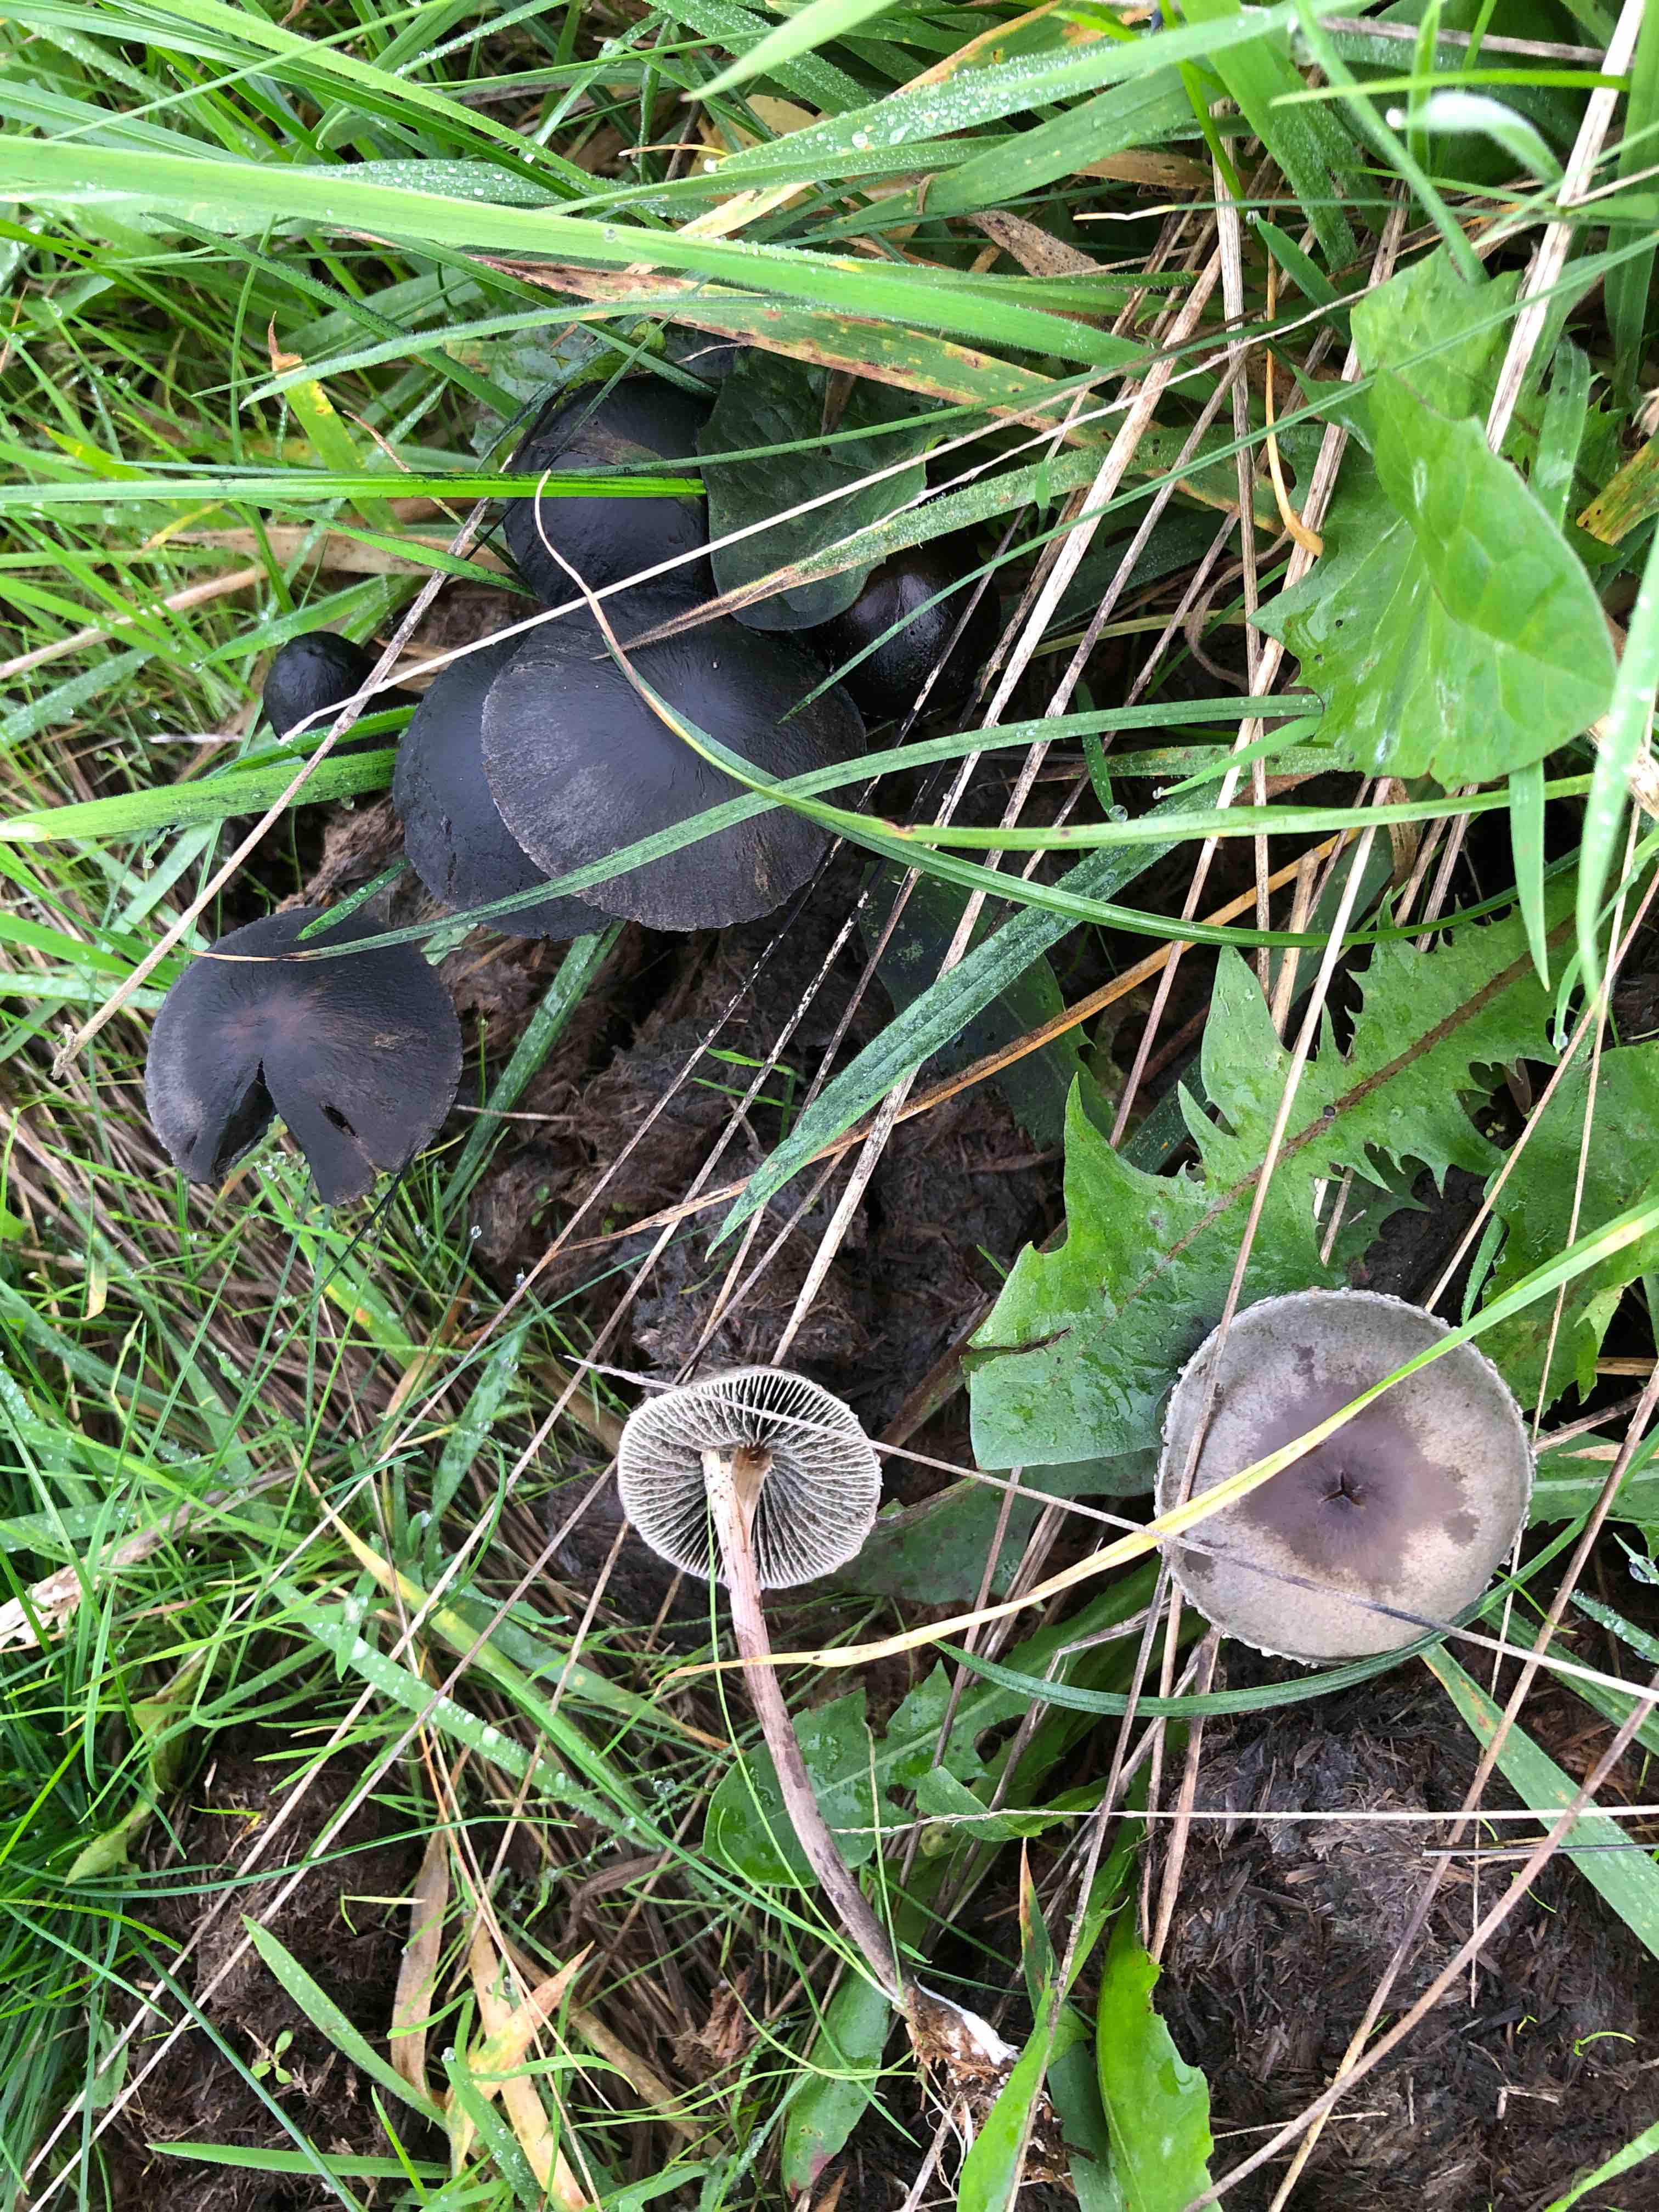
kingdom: Fungi
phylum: Basidiomycota
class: Agaricomycetes
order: Agaricales
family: Bolbitiaceae
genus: Panaeolus
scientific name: Panaeolus papilionaceus
